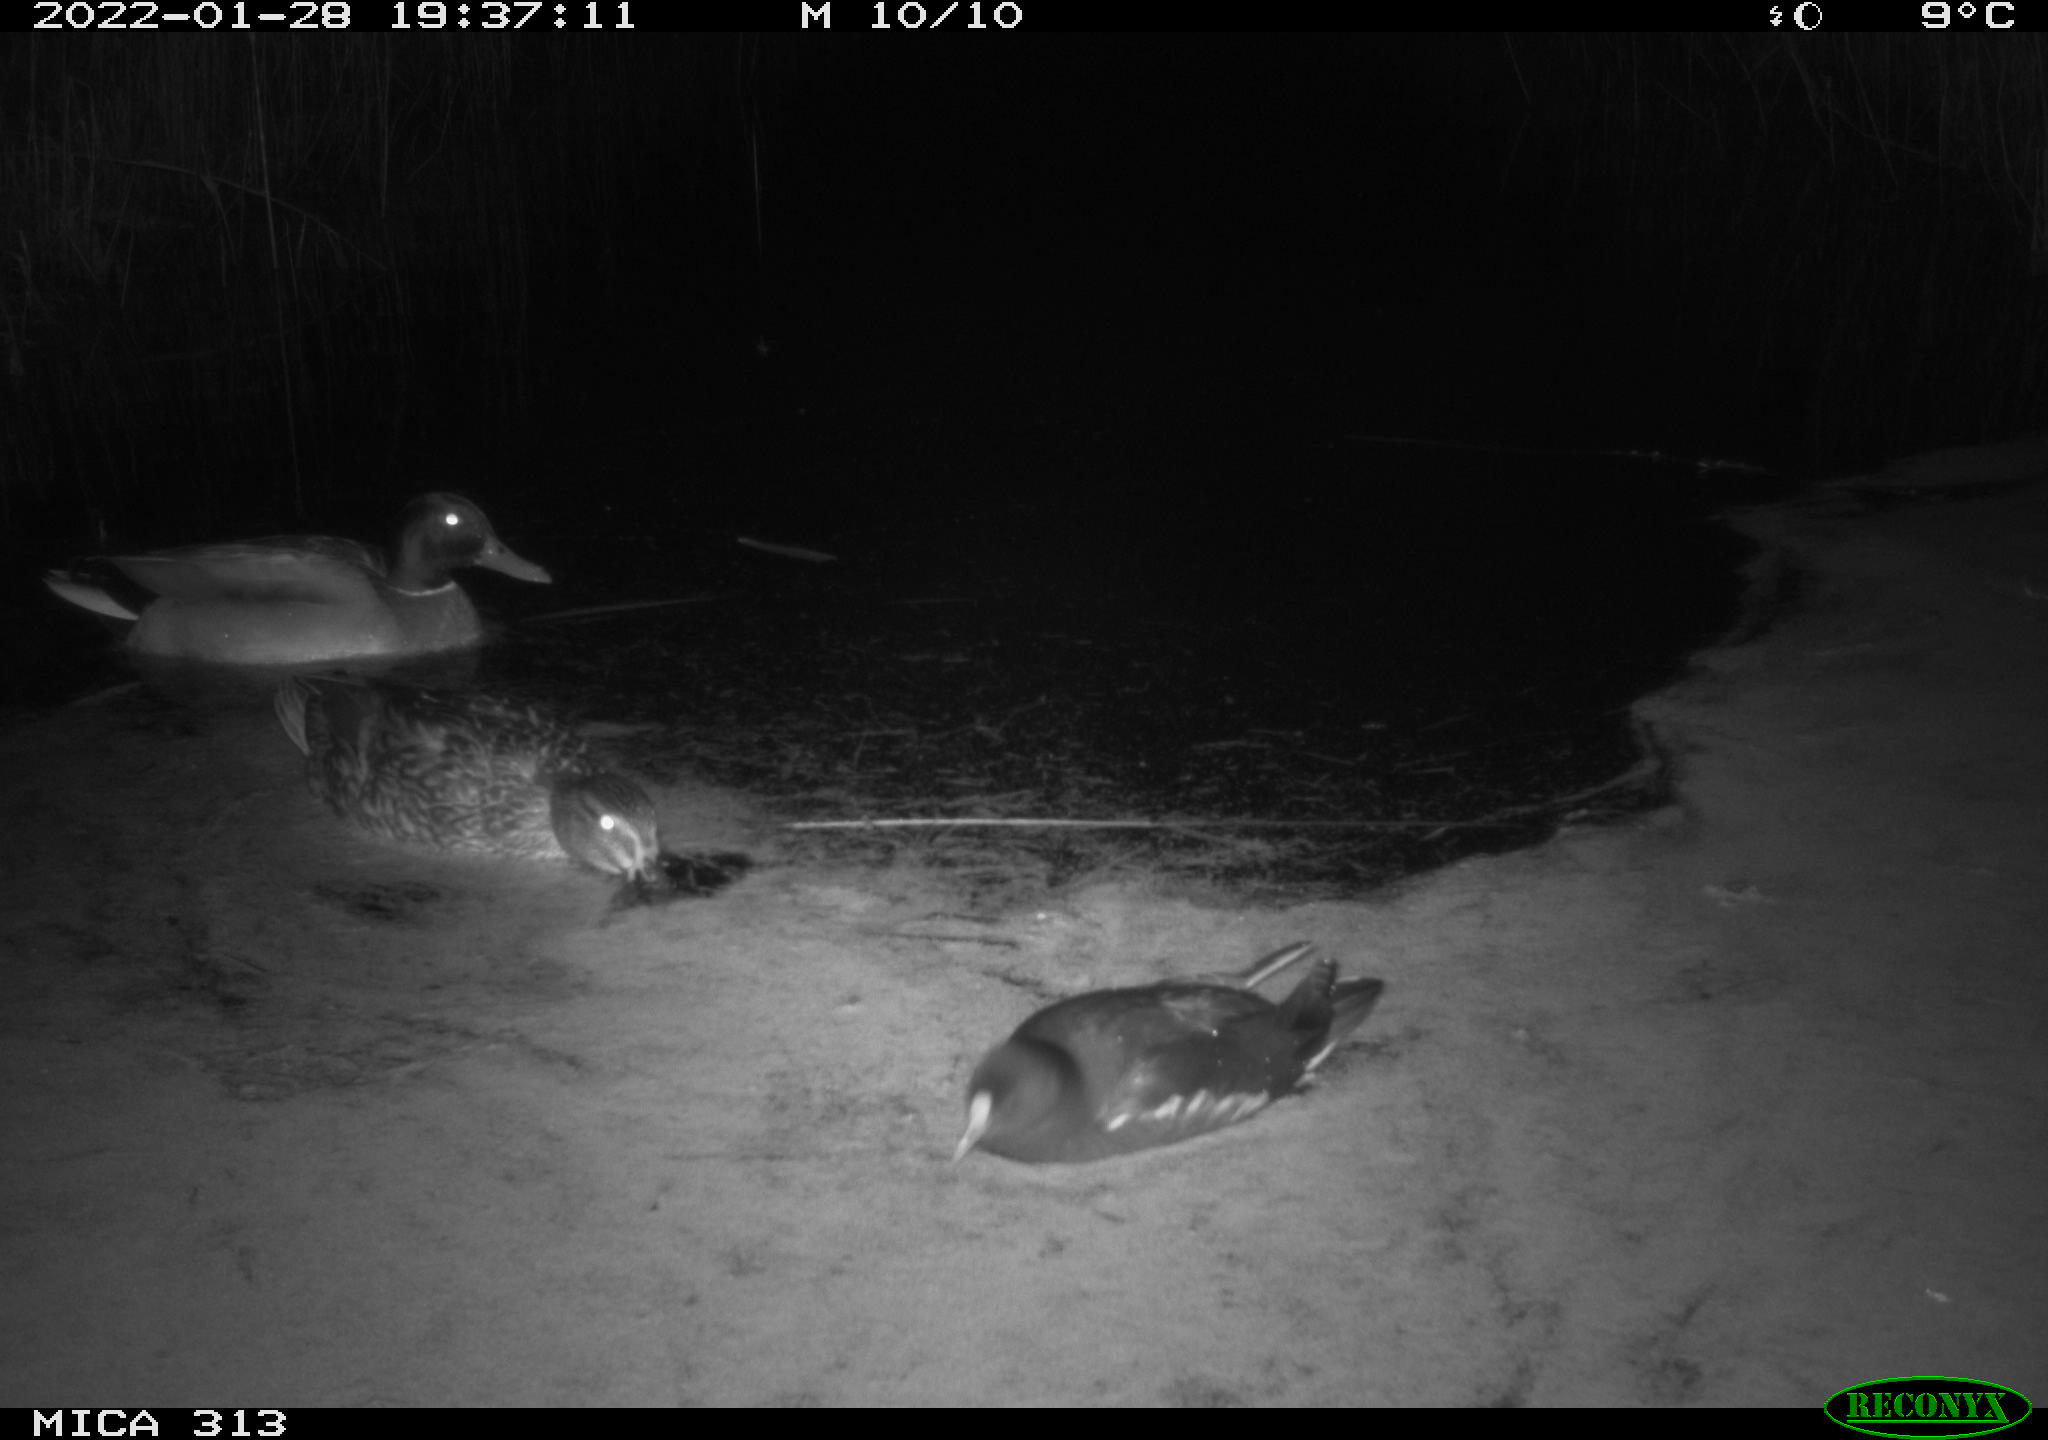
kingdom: Animalia
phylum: Chordata
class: Aves
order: Gruiformes
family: Rallidae
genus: Gallinula
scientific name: Gallinula chloropus
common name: Common moorhen
